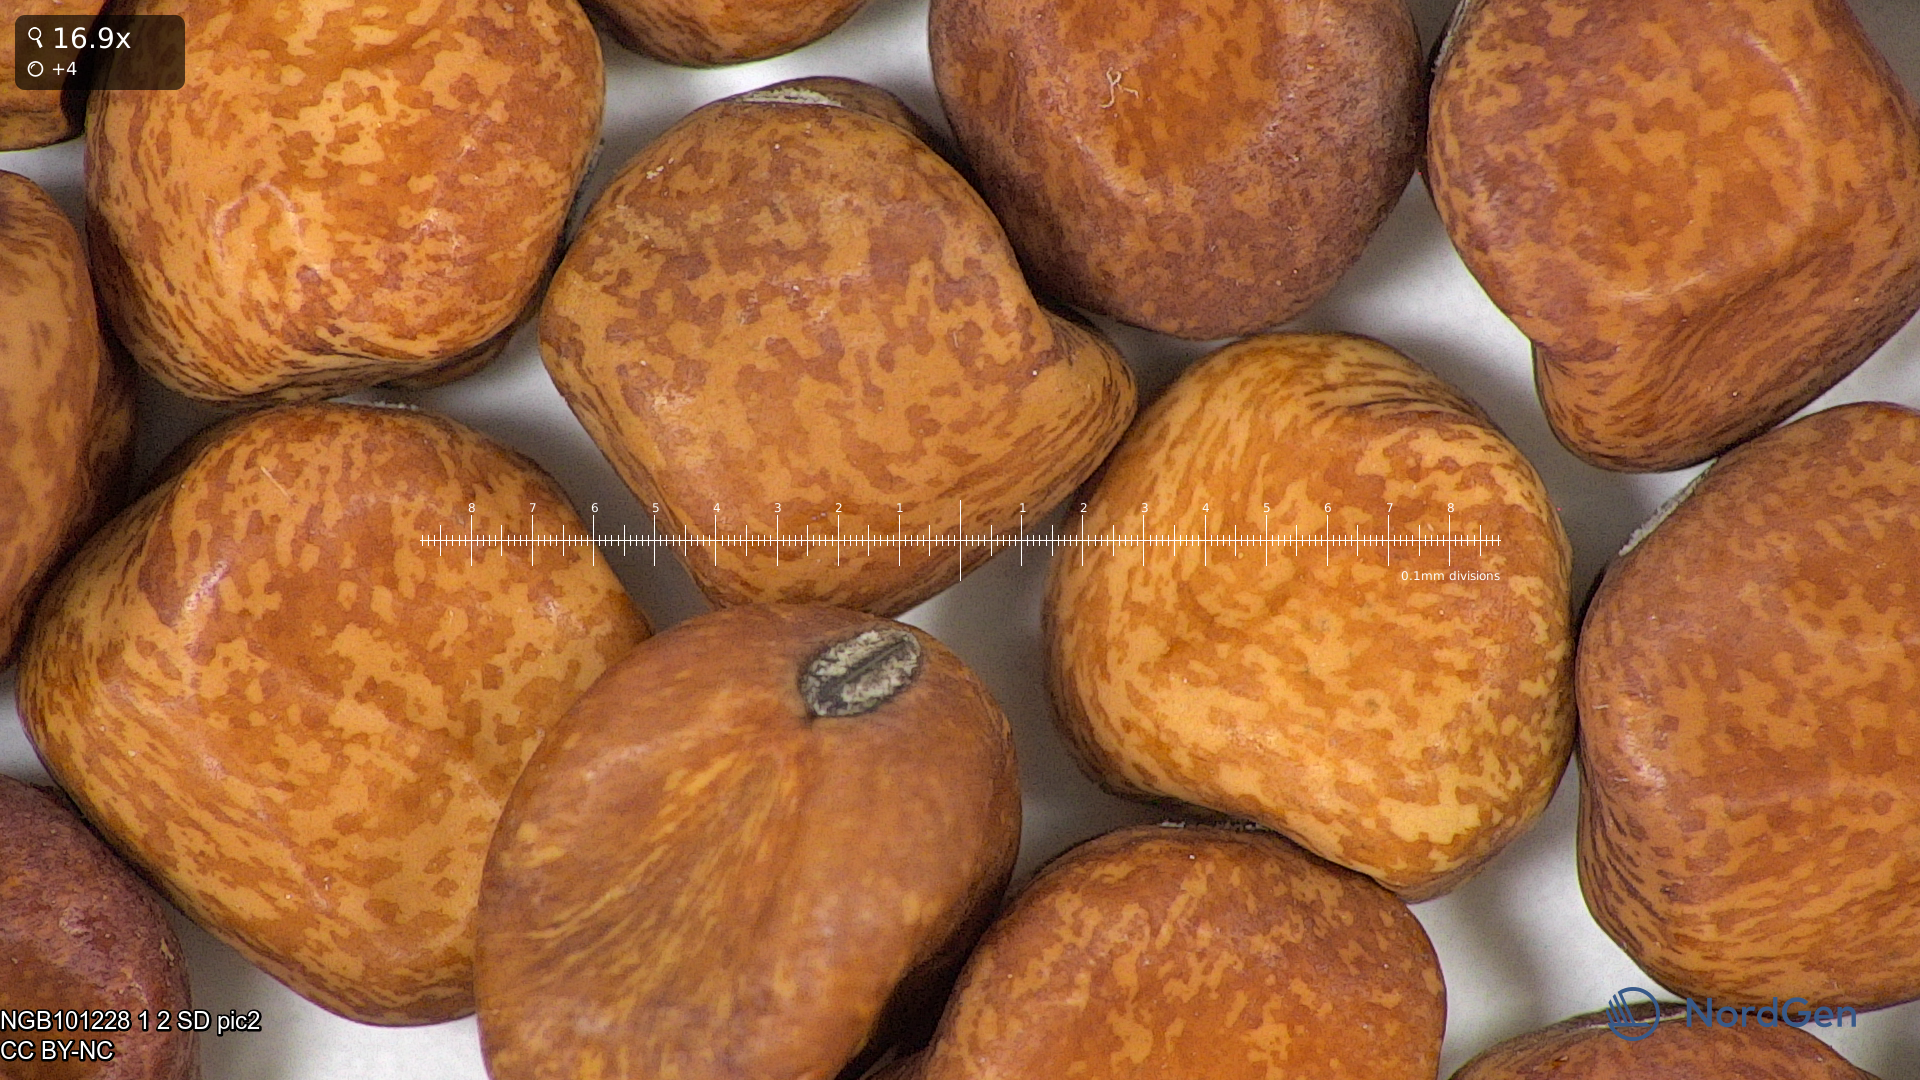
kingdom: Plantae
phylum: Tracheophyta
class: Magnoliopsida
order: Fabales
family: Fabaceae
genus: Lathyrus
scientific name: Lathyrus oleraceus
